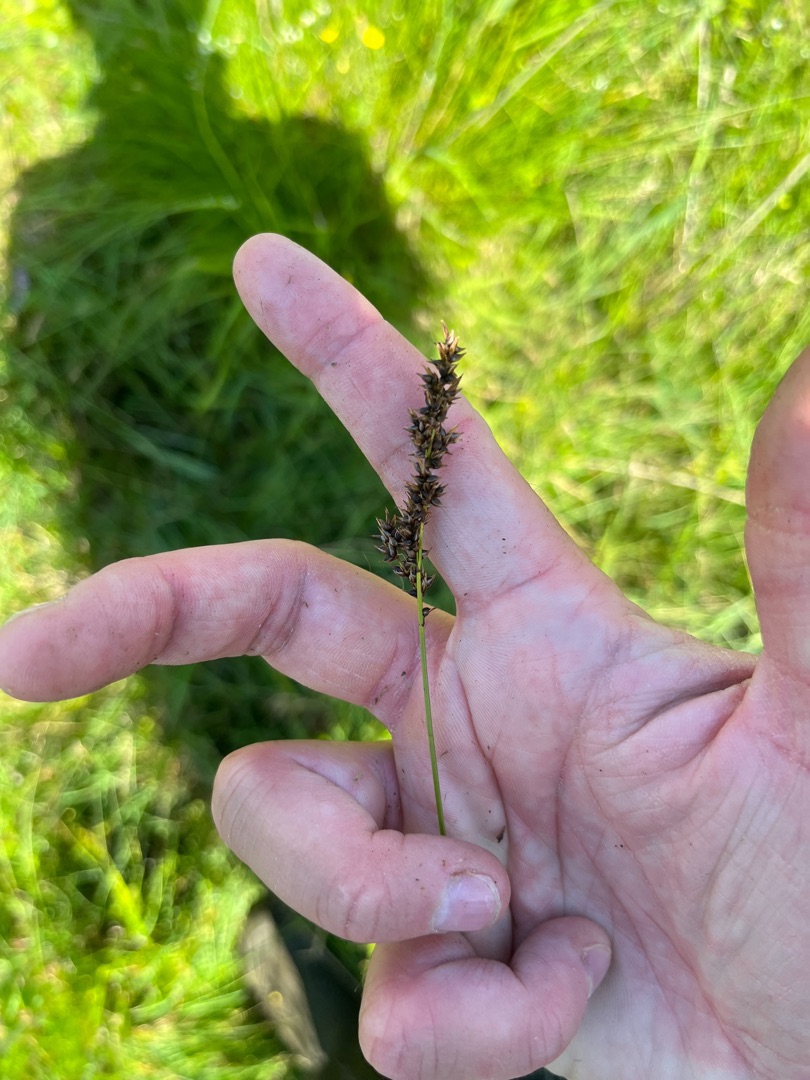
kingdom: Plantae
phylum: Tracheophyta
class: Liliopsida
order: Poales
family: Cyperaceae
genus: Carex
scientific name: Carex appropinquata
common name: Langakset star
